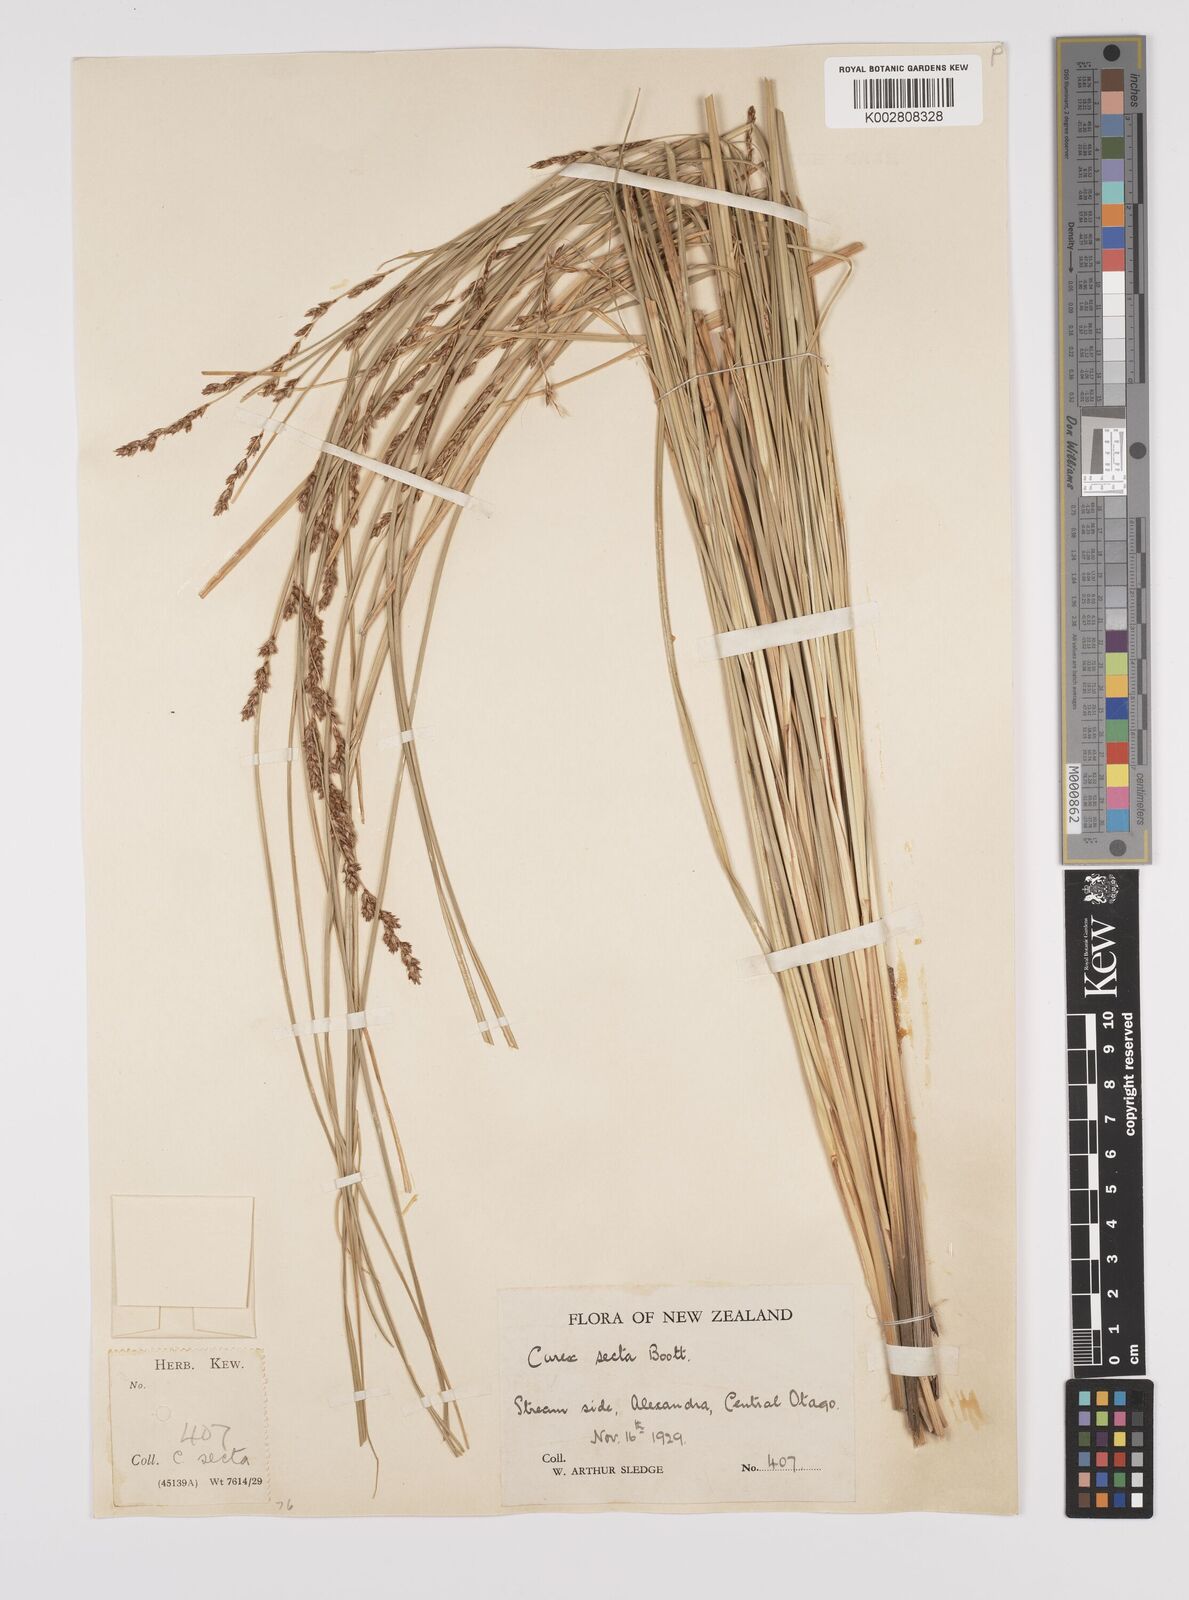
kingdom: Plantae
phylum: Tracheophyta
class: Liliopsida
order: Poales
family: Cyperaceae
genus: Carex
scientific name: Carex appressa
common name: Tussock sedge
